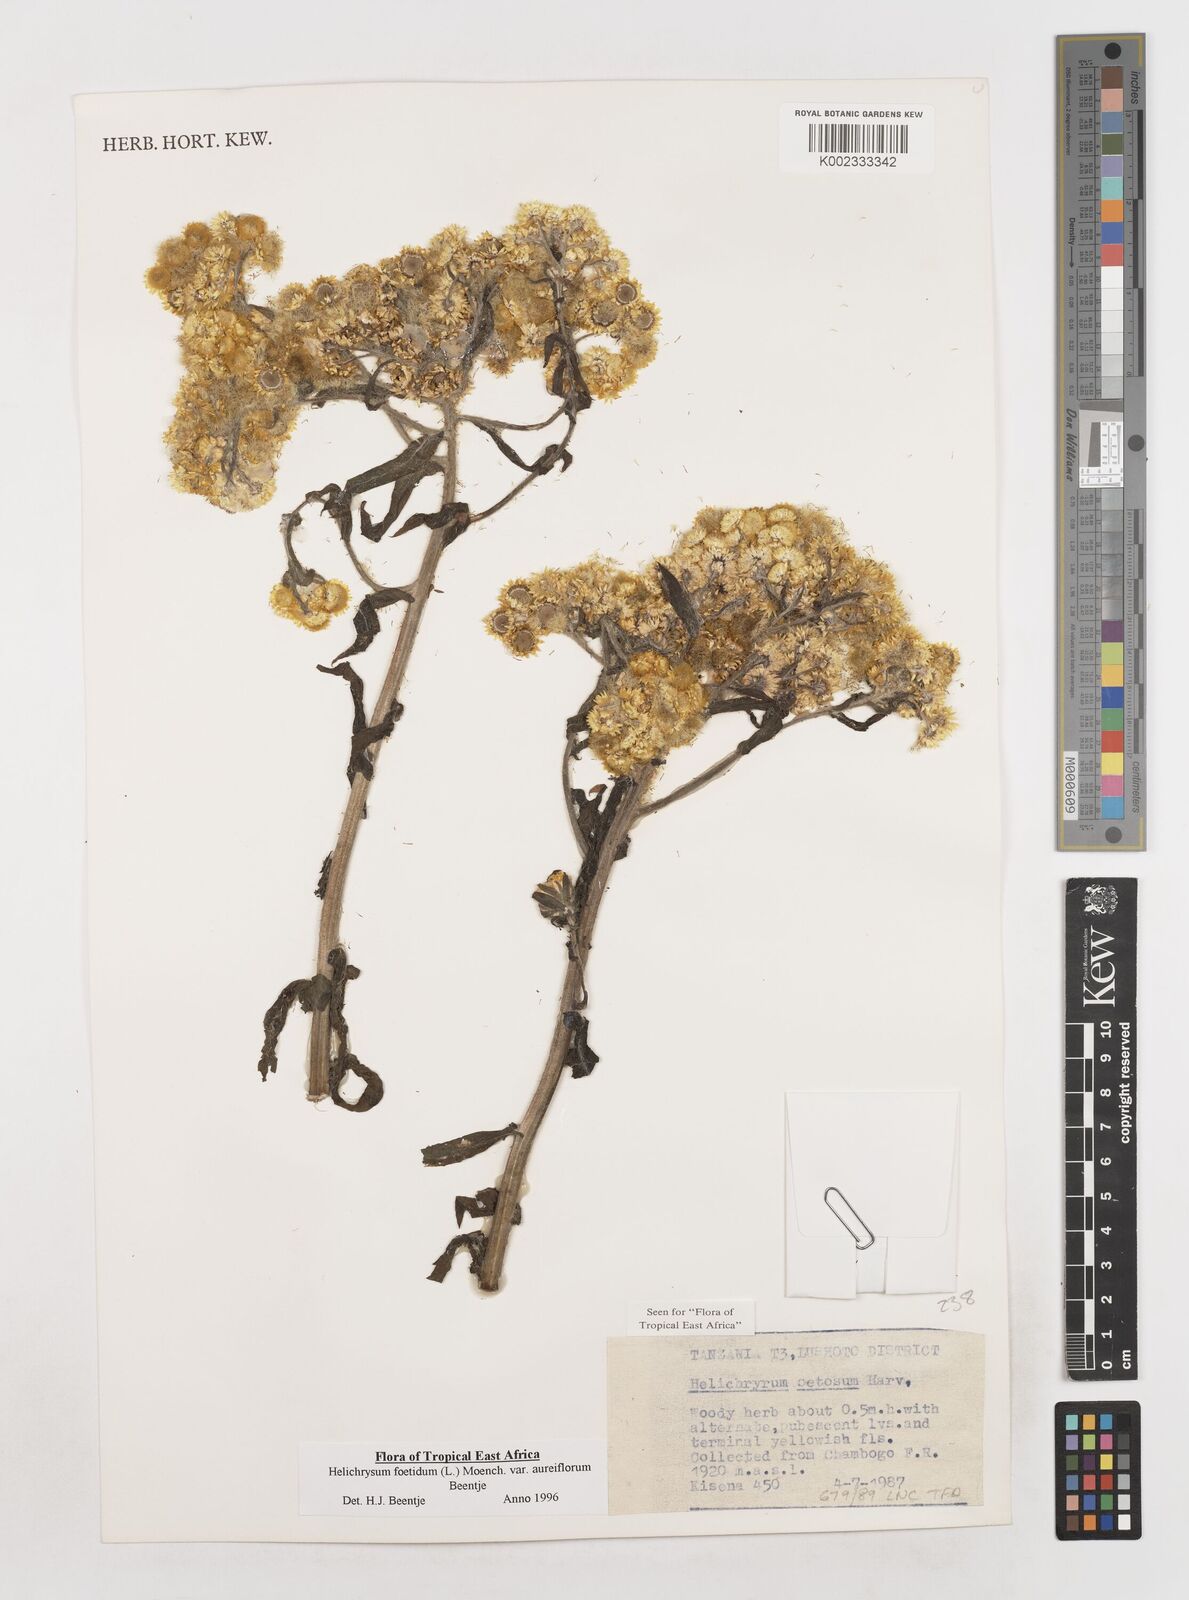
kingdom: Plantae
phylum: Tracheophyta
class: Magnoliopsida
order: Asterales
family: Asteraceae
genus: Helichrysum
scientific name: Helichrysum foetidum
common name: Stinking everlasting
